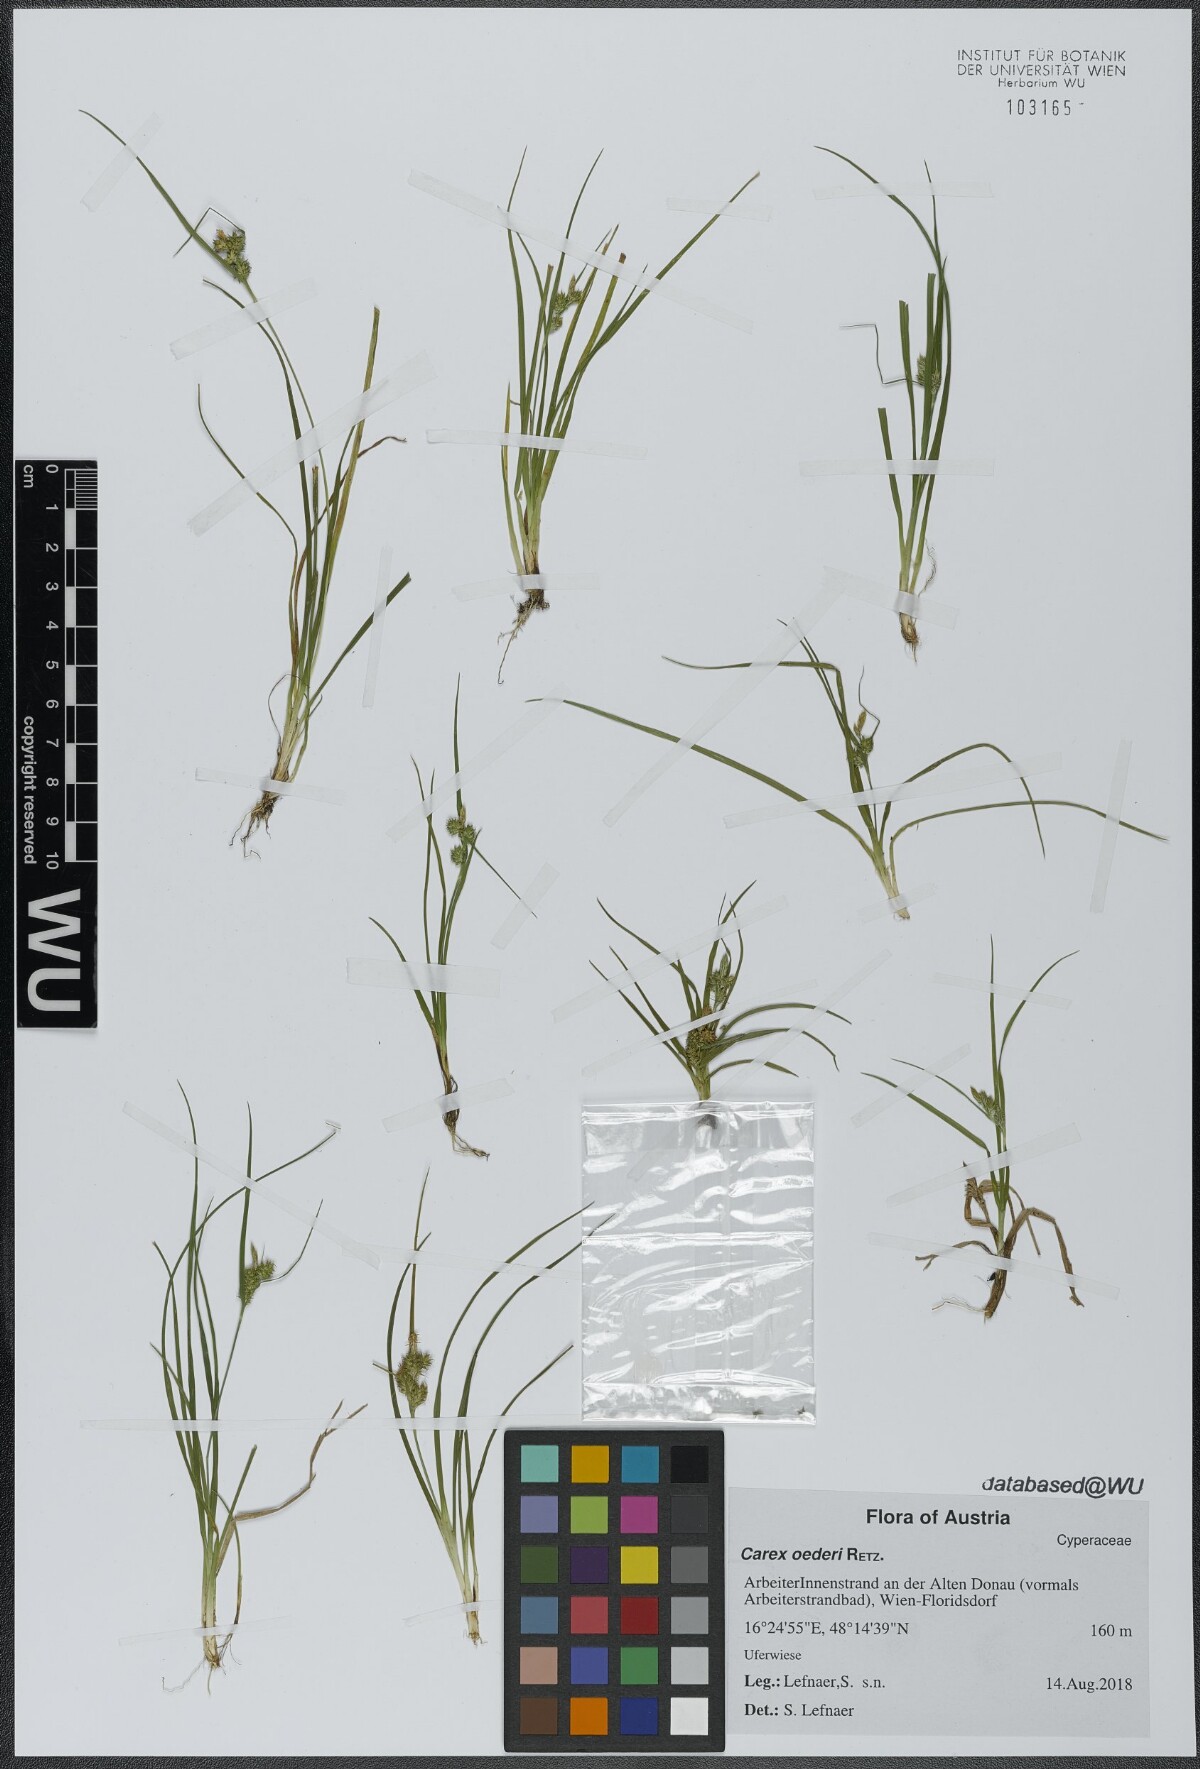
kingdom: Plantae
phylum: Tracheophyta
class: Liliopsida
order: Poales
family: Cyperaceae
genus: Carex
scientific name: Carex oederi
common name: Common & small-fruited yellow-sedge
